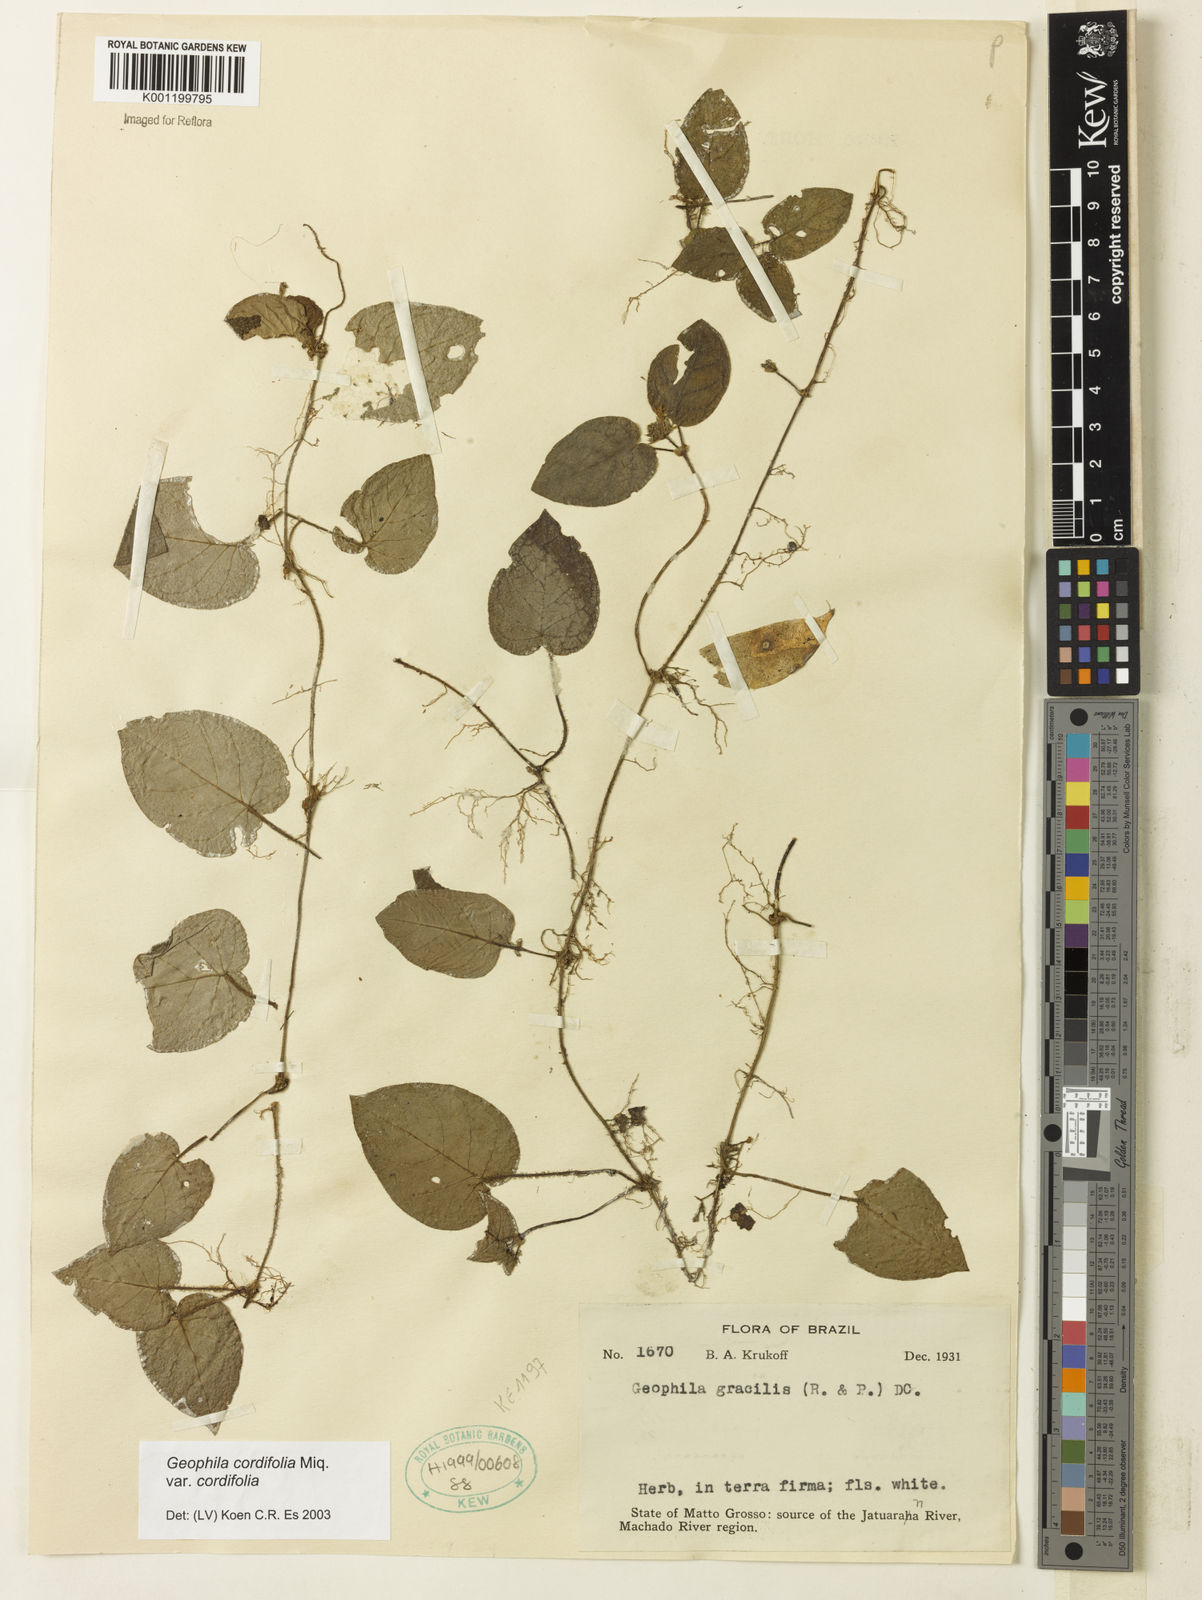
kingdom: Plantae
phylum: Tracheophyta
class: Magnoliopsida
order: Gentianales
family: Rubiaceae
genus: Geophila
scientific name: Geophila cordifolia
